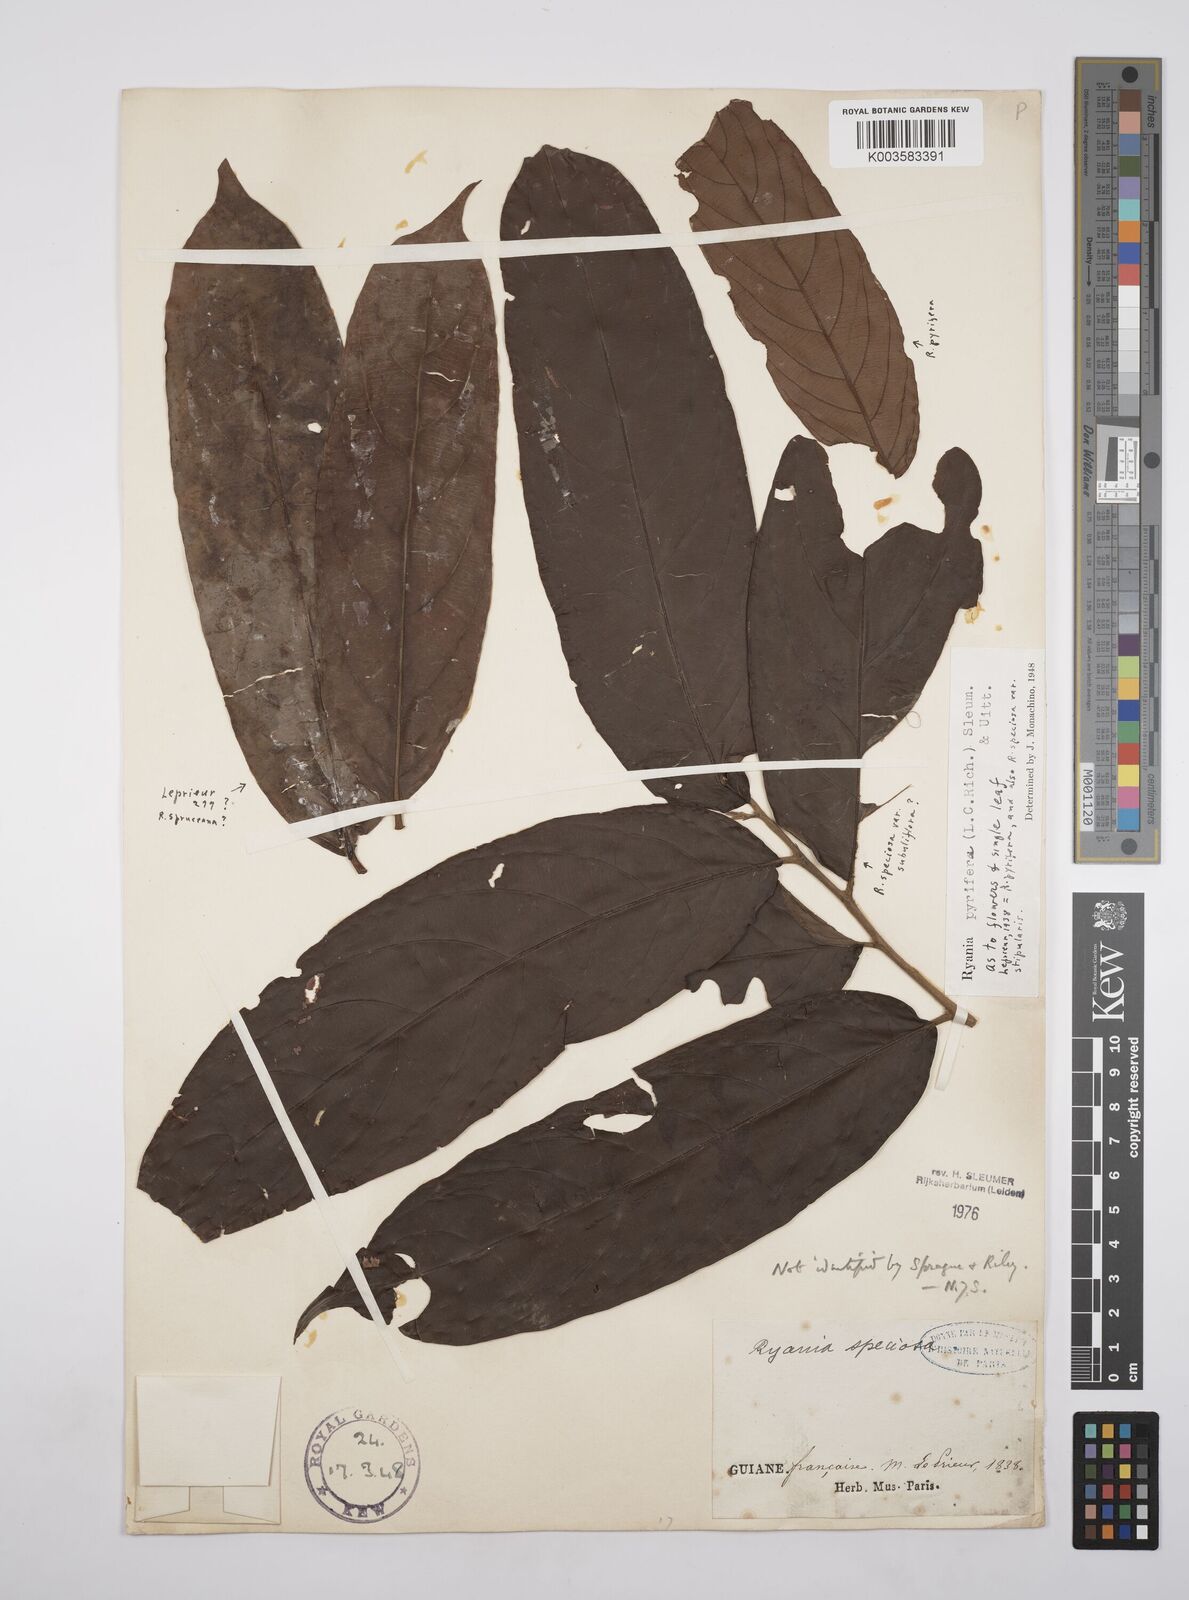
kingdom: Plantae
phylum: Tracheophyta
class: Magnoliopsida
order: Malpighiales
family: Salicaceae
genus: Ryania
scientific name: Ryania pyrifera
